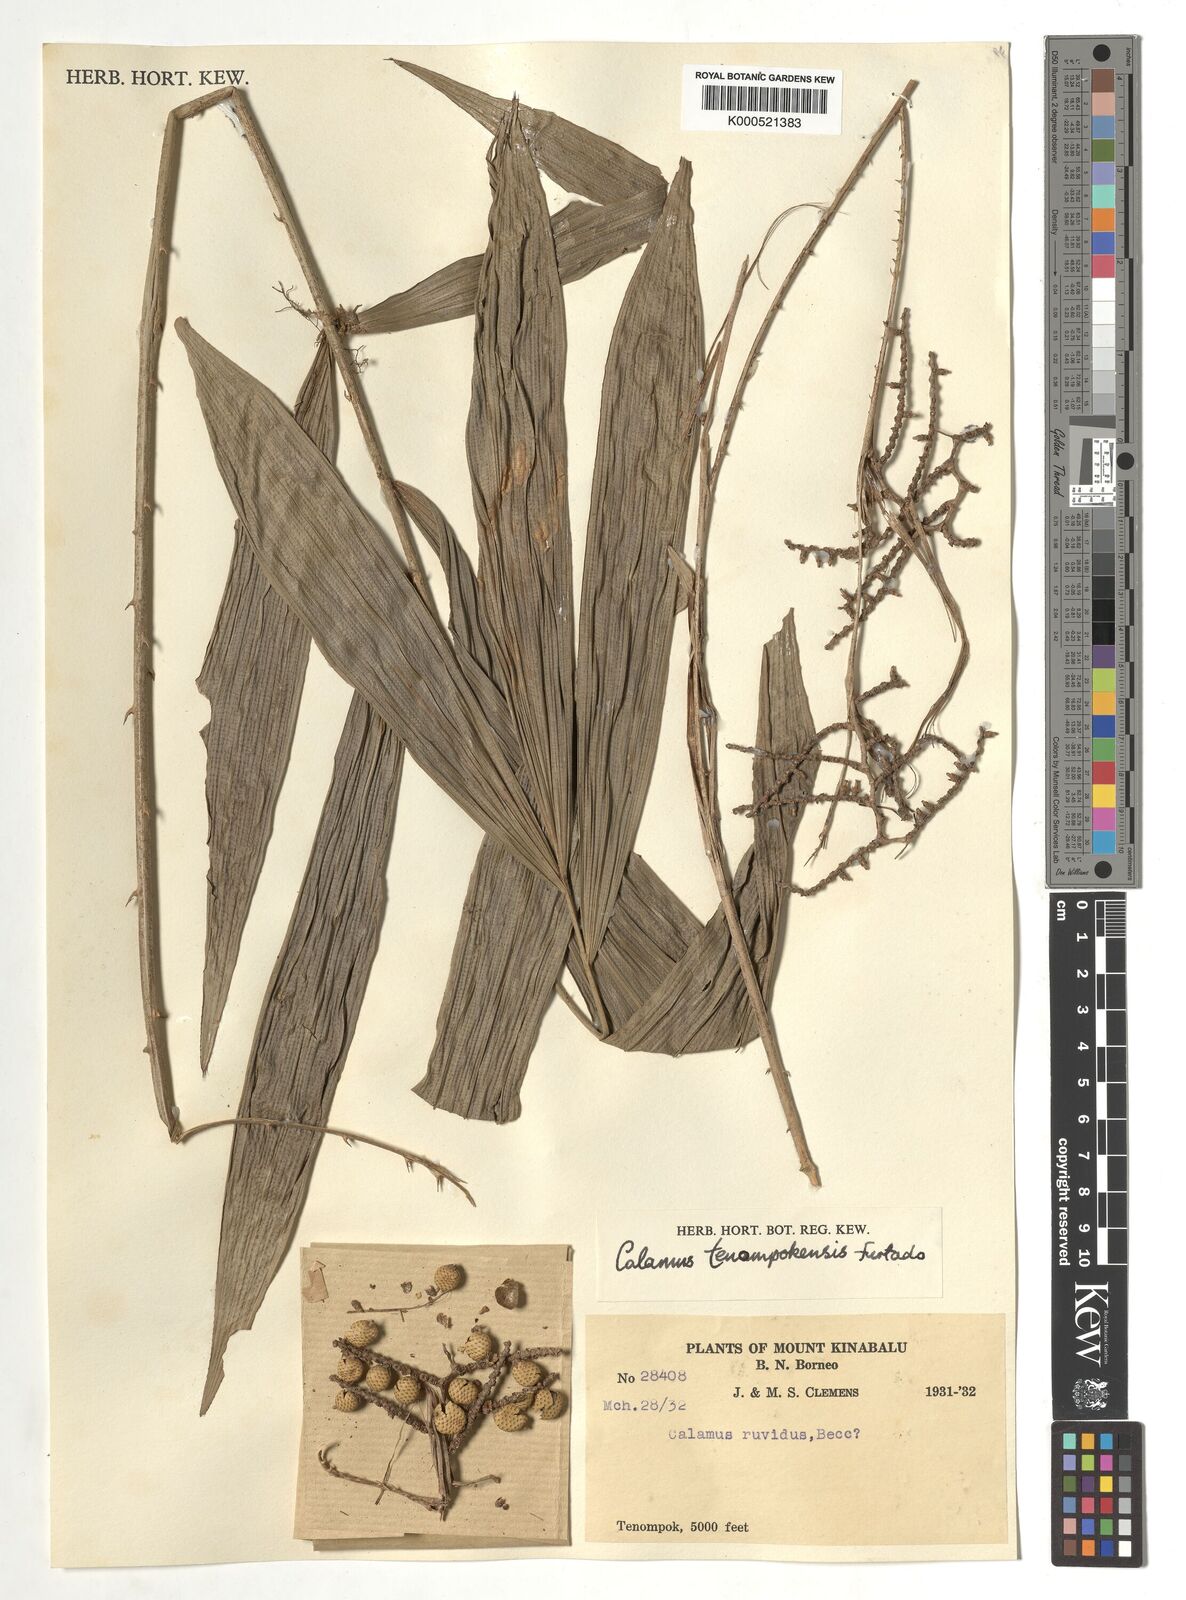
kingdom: Plantae
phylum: Tracheophyta
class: Liliopsida
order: Arecales
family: Arecaceae
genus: Calamus
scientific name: Calamus tenompokensis
